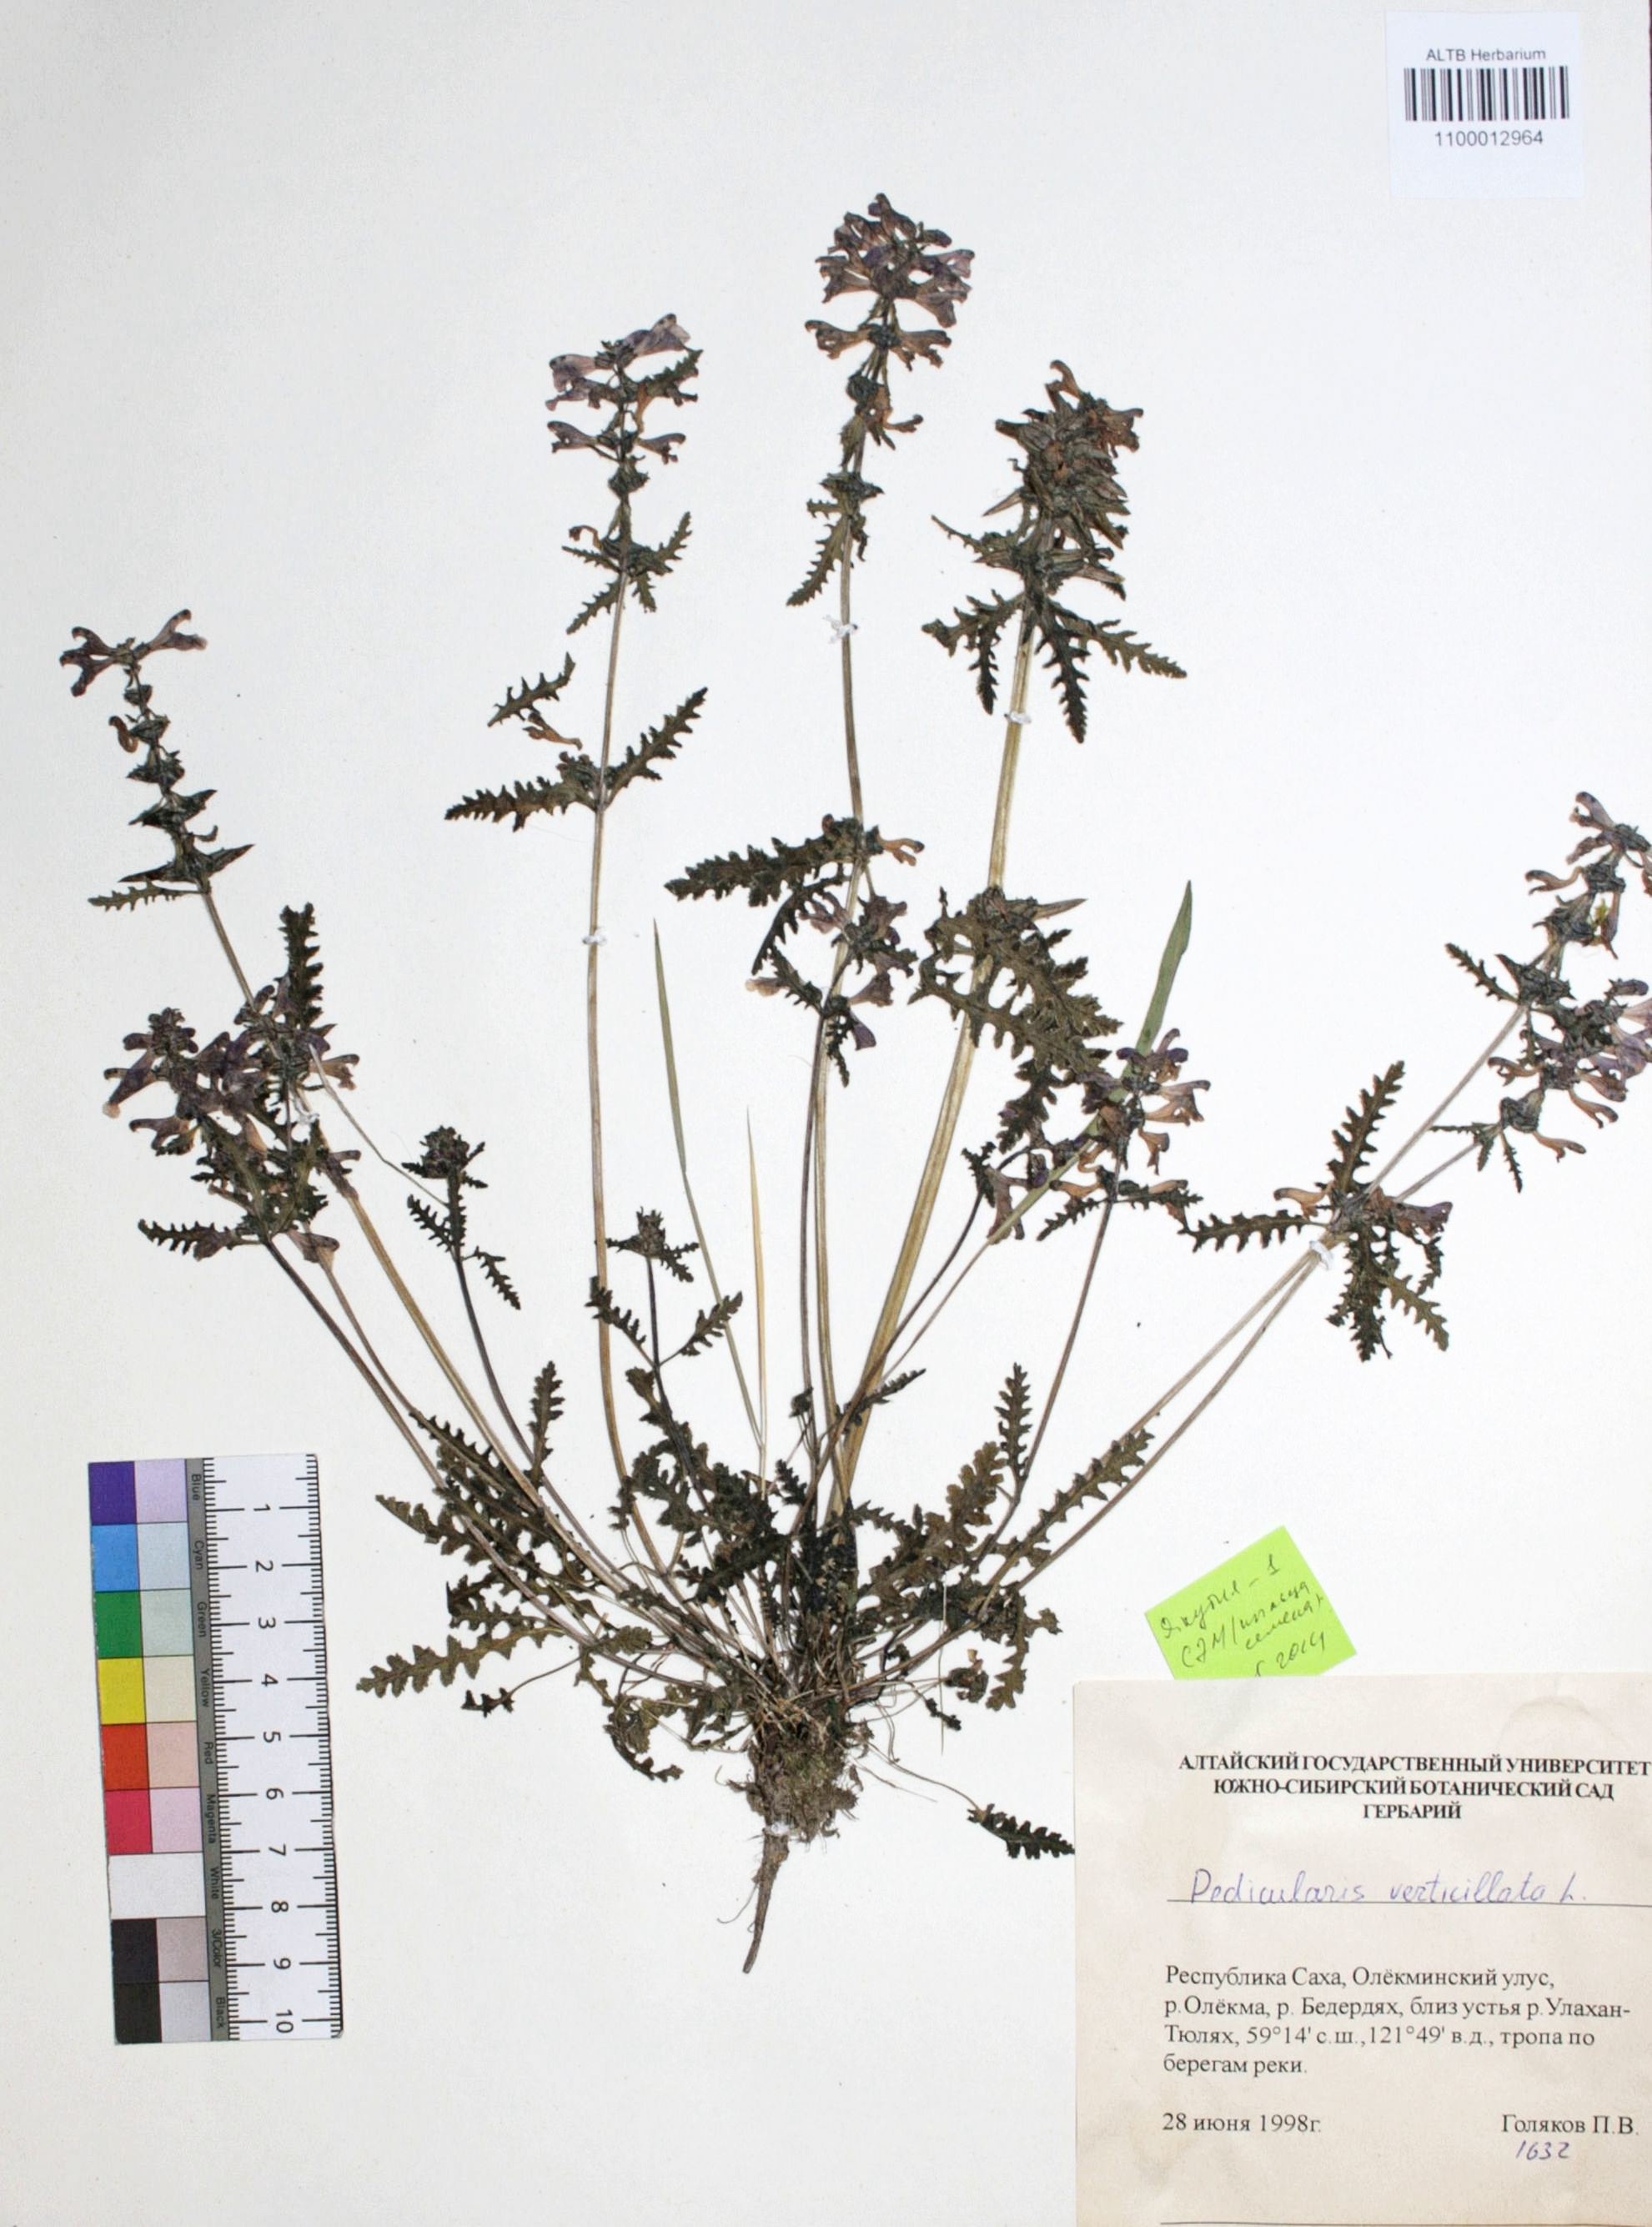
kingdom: Plantae
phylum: Tracheophyta
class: Magnoliopsida
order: Lamiales
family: Orobanchaceae
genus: Pedicularis
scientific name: Pedicularis verticillata
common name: Whorled lousewort
